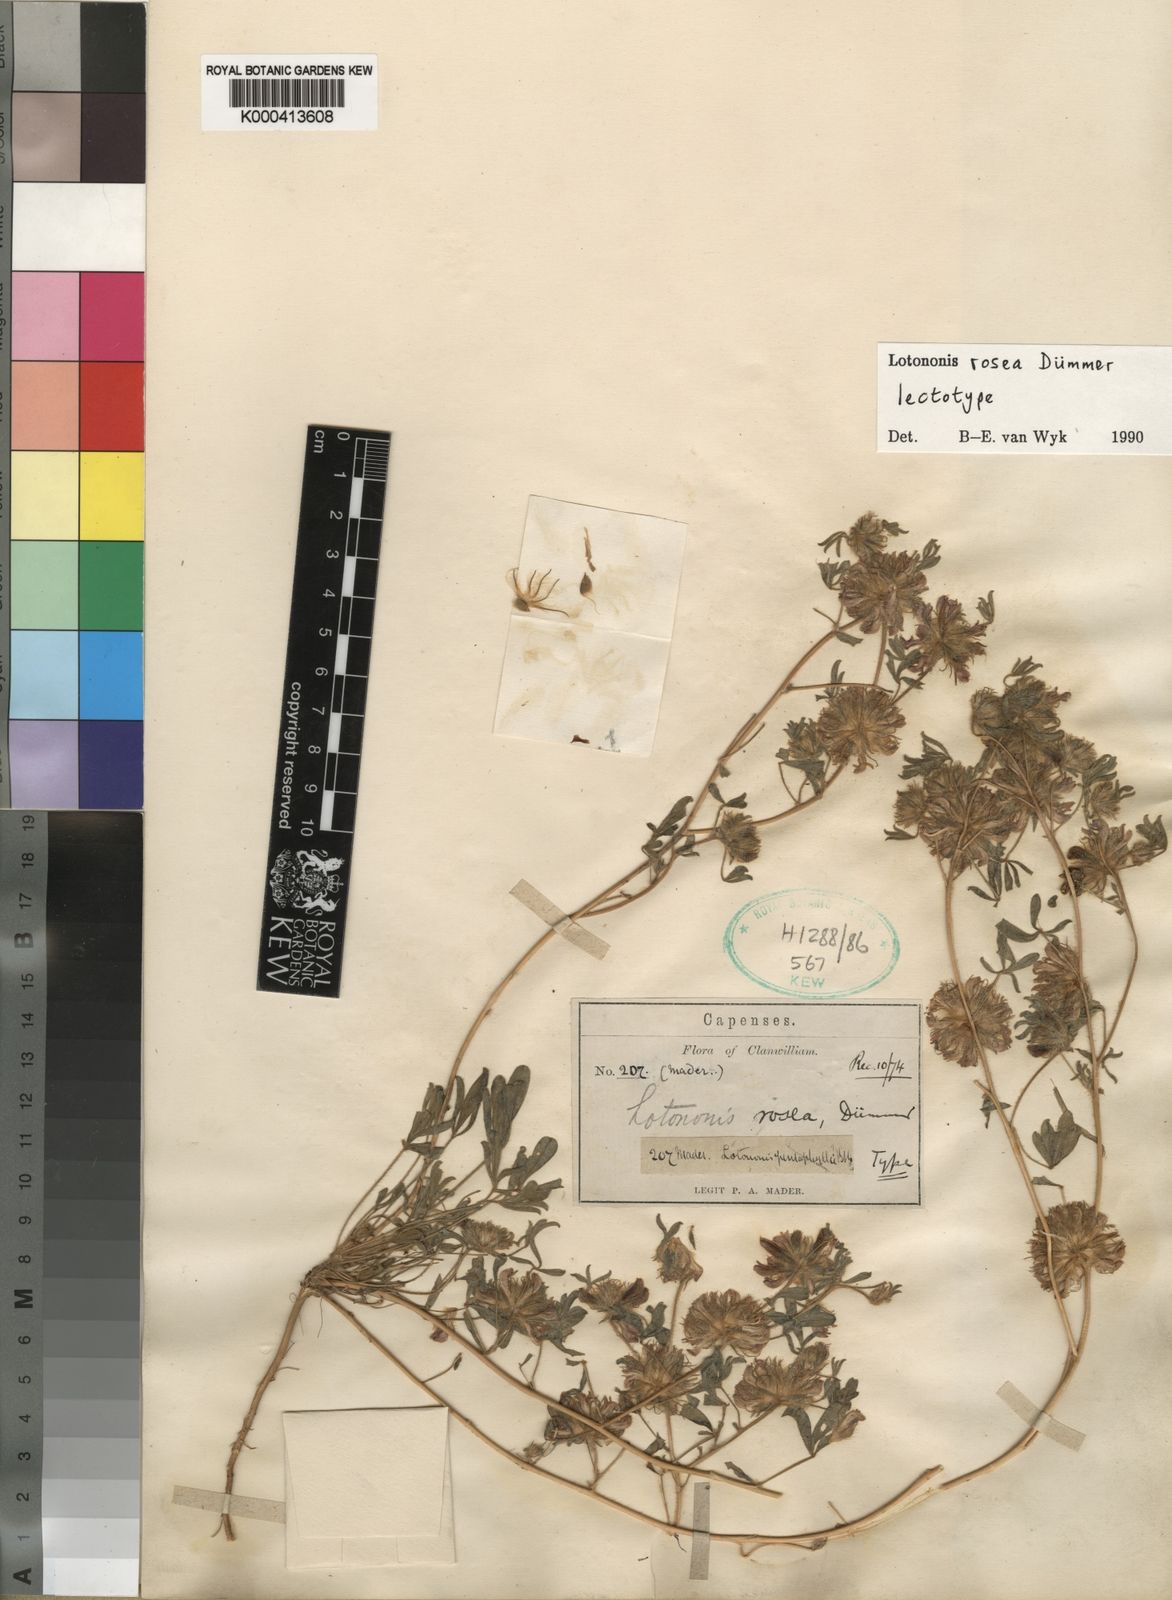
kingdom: Plantae
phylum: Tracheophyta
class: Magnoliopsida
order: Fabales
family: Fabaceae
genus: Leobordea
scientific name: Leobordea rosea
